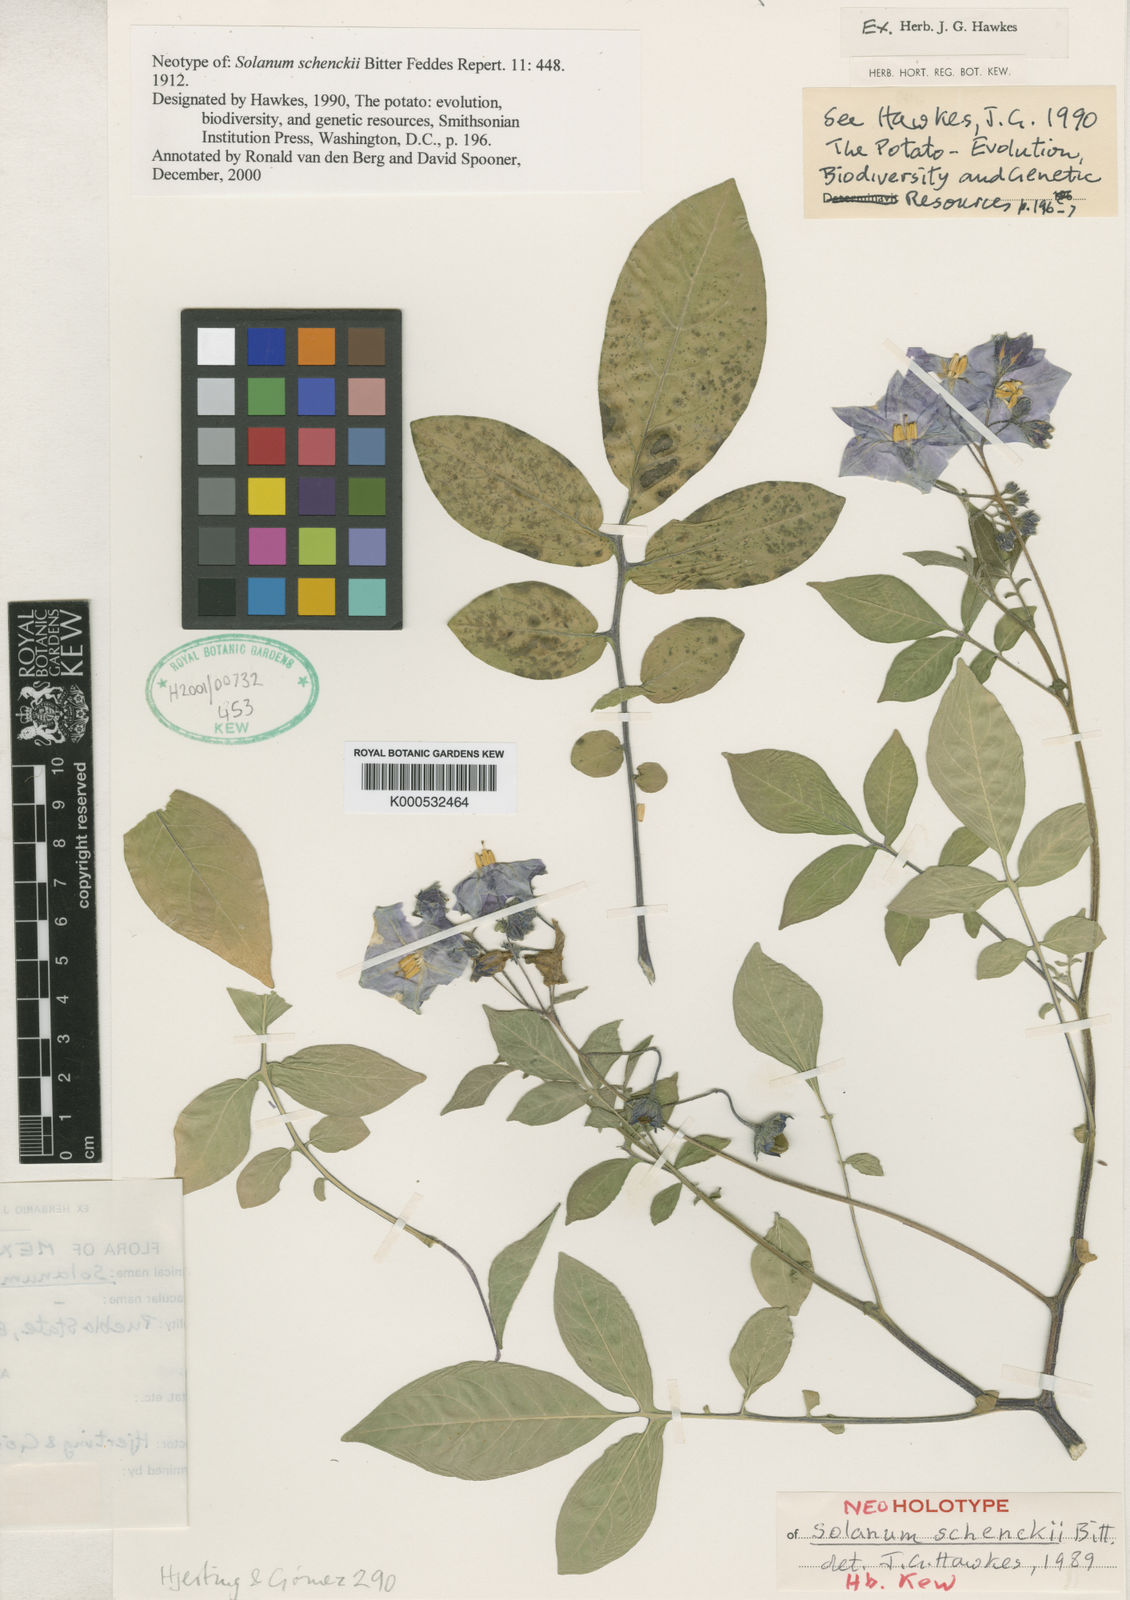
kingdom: Plantae
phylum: Tracheophyta
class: Magnoliopsida
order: Solanales
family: Solanaceae
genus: Solanum
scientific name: Solanum schenckii
